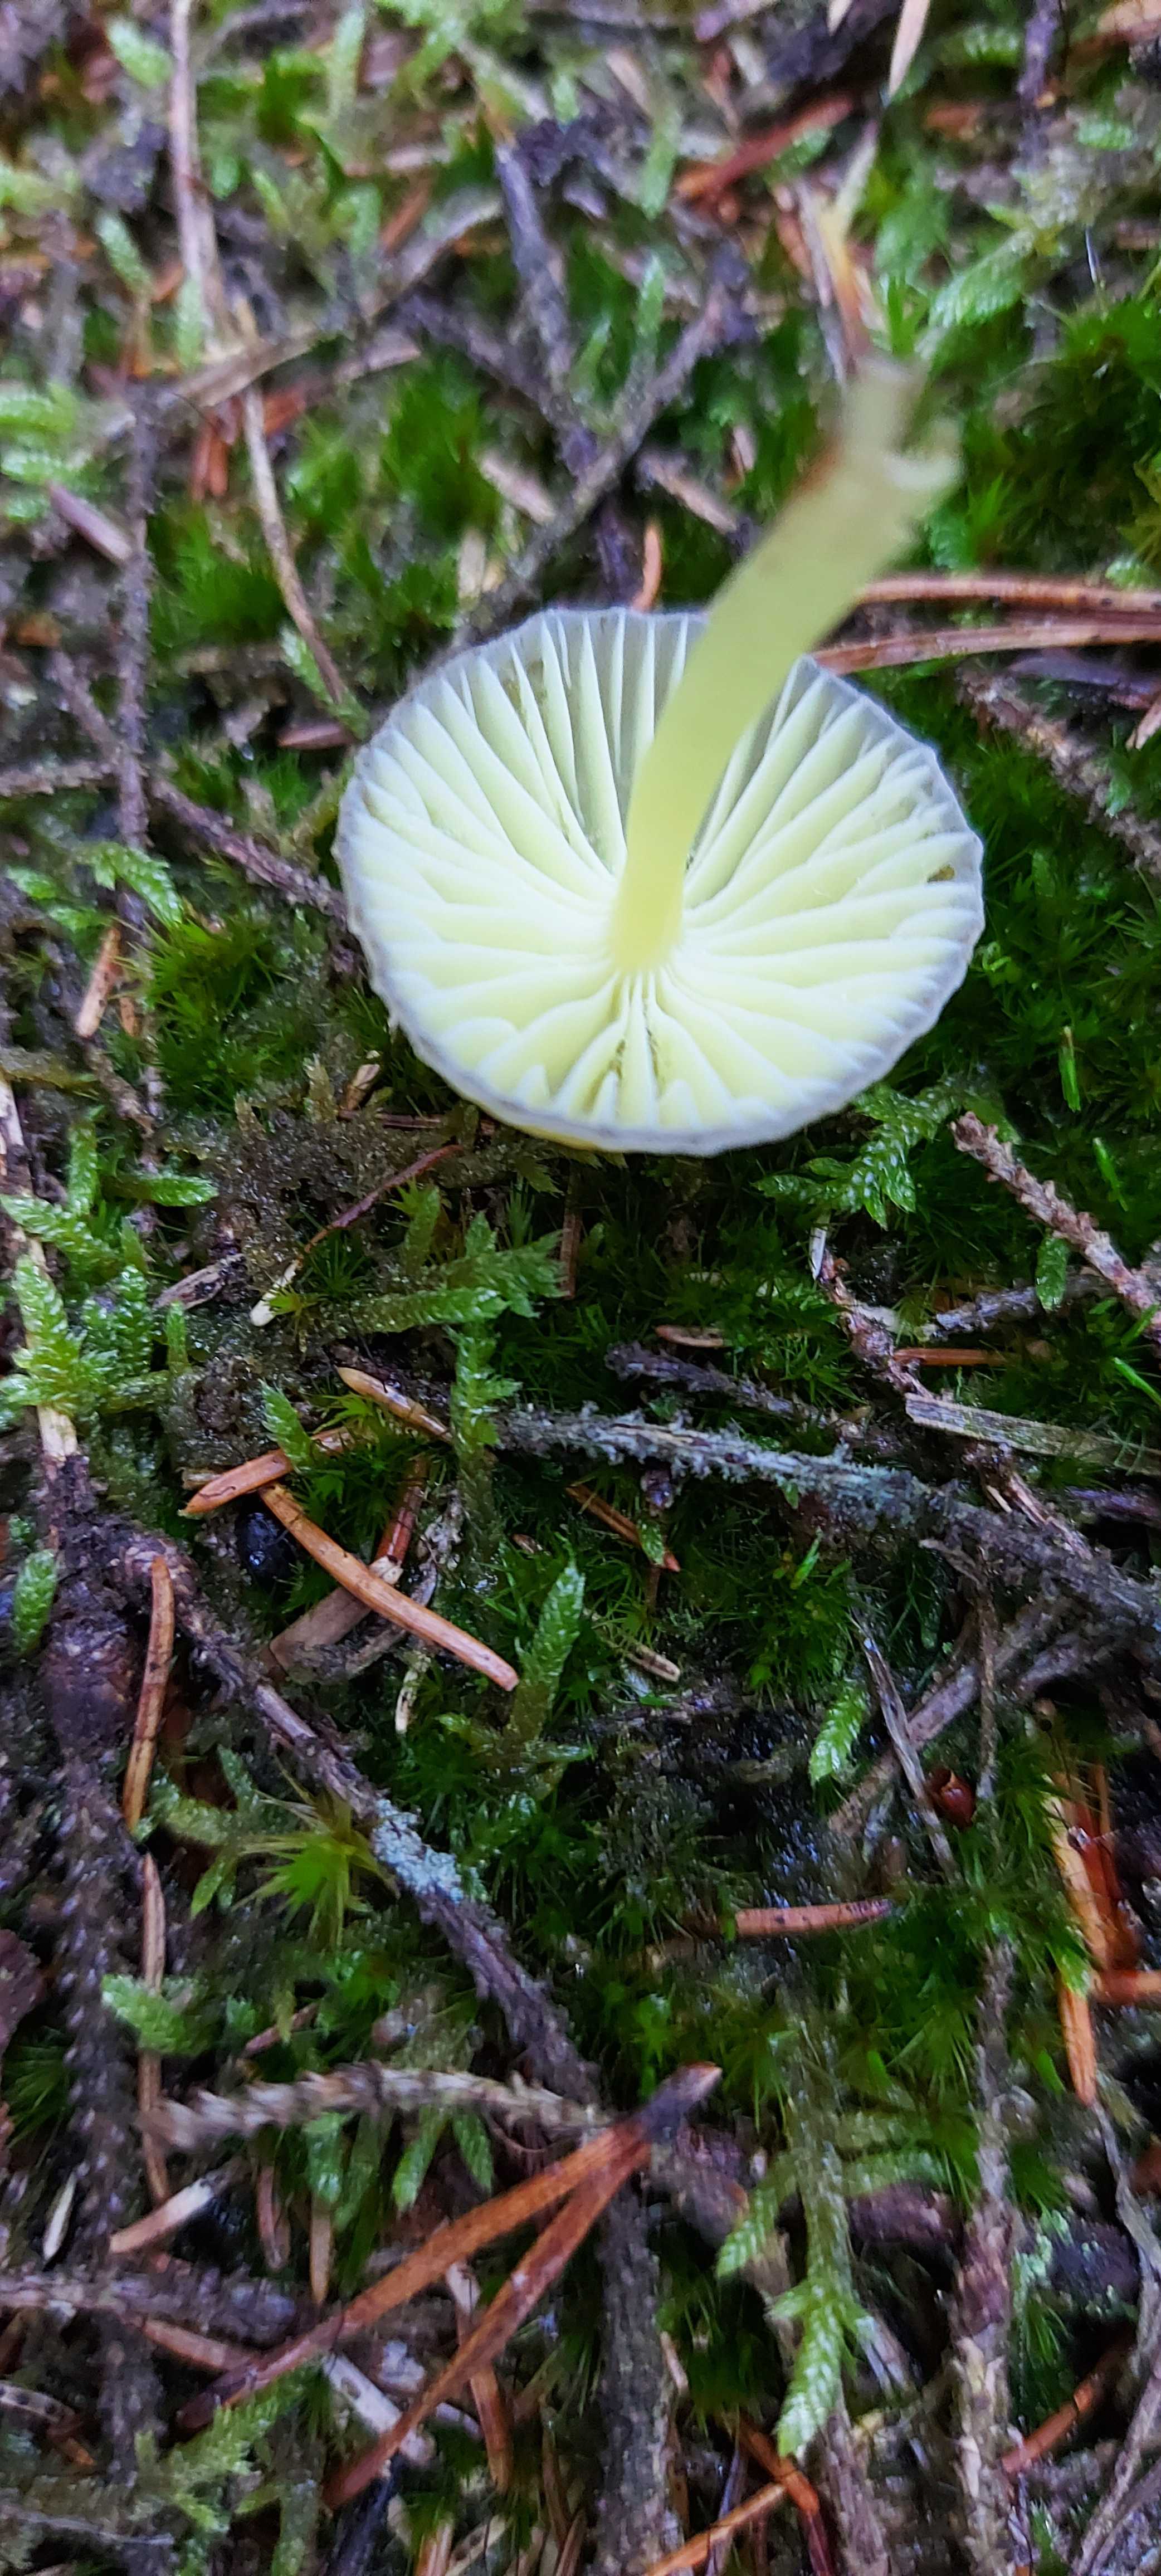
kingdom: Fungi
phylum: Basidiomycota
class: Agaricomycetes
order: Agaricales
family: Mycenaceae
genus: Mycena
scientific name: Mycena epipterygia
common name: gulstokket huesvamp
